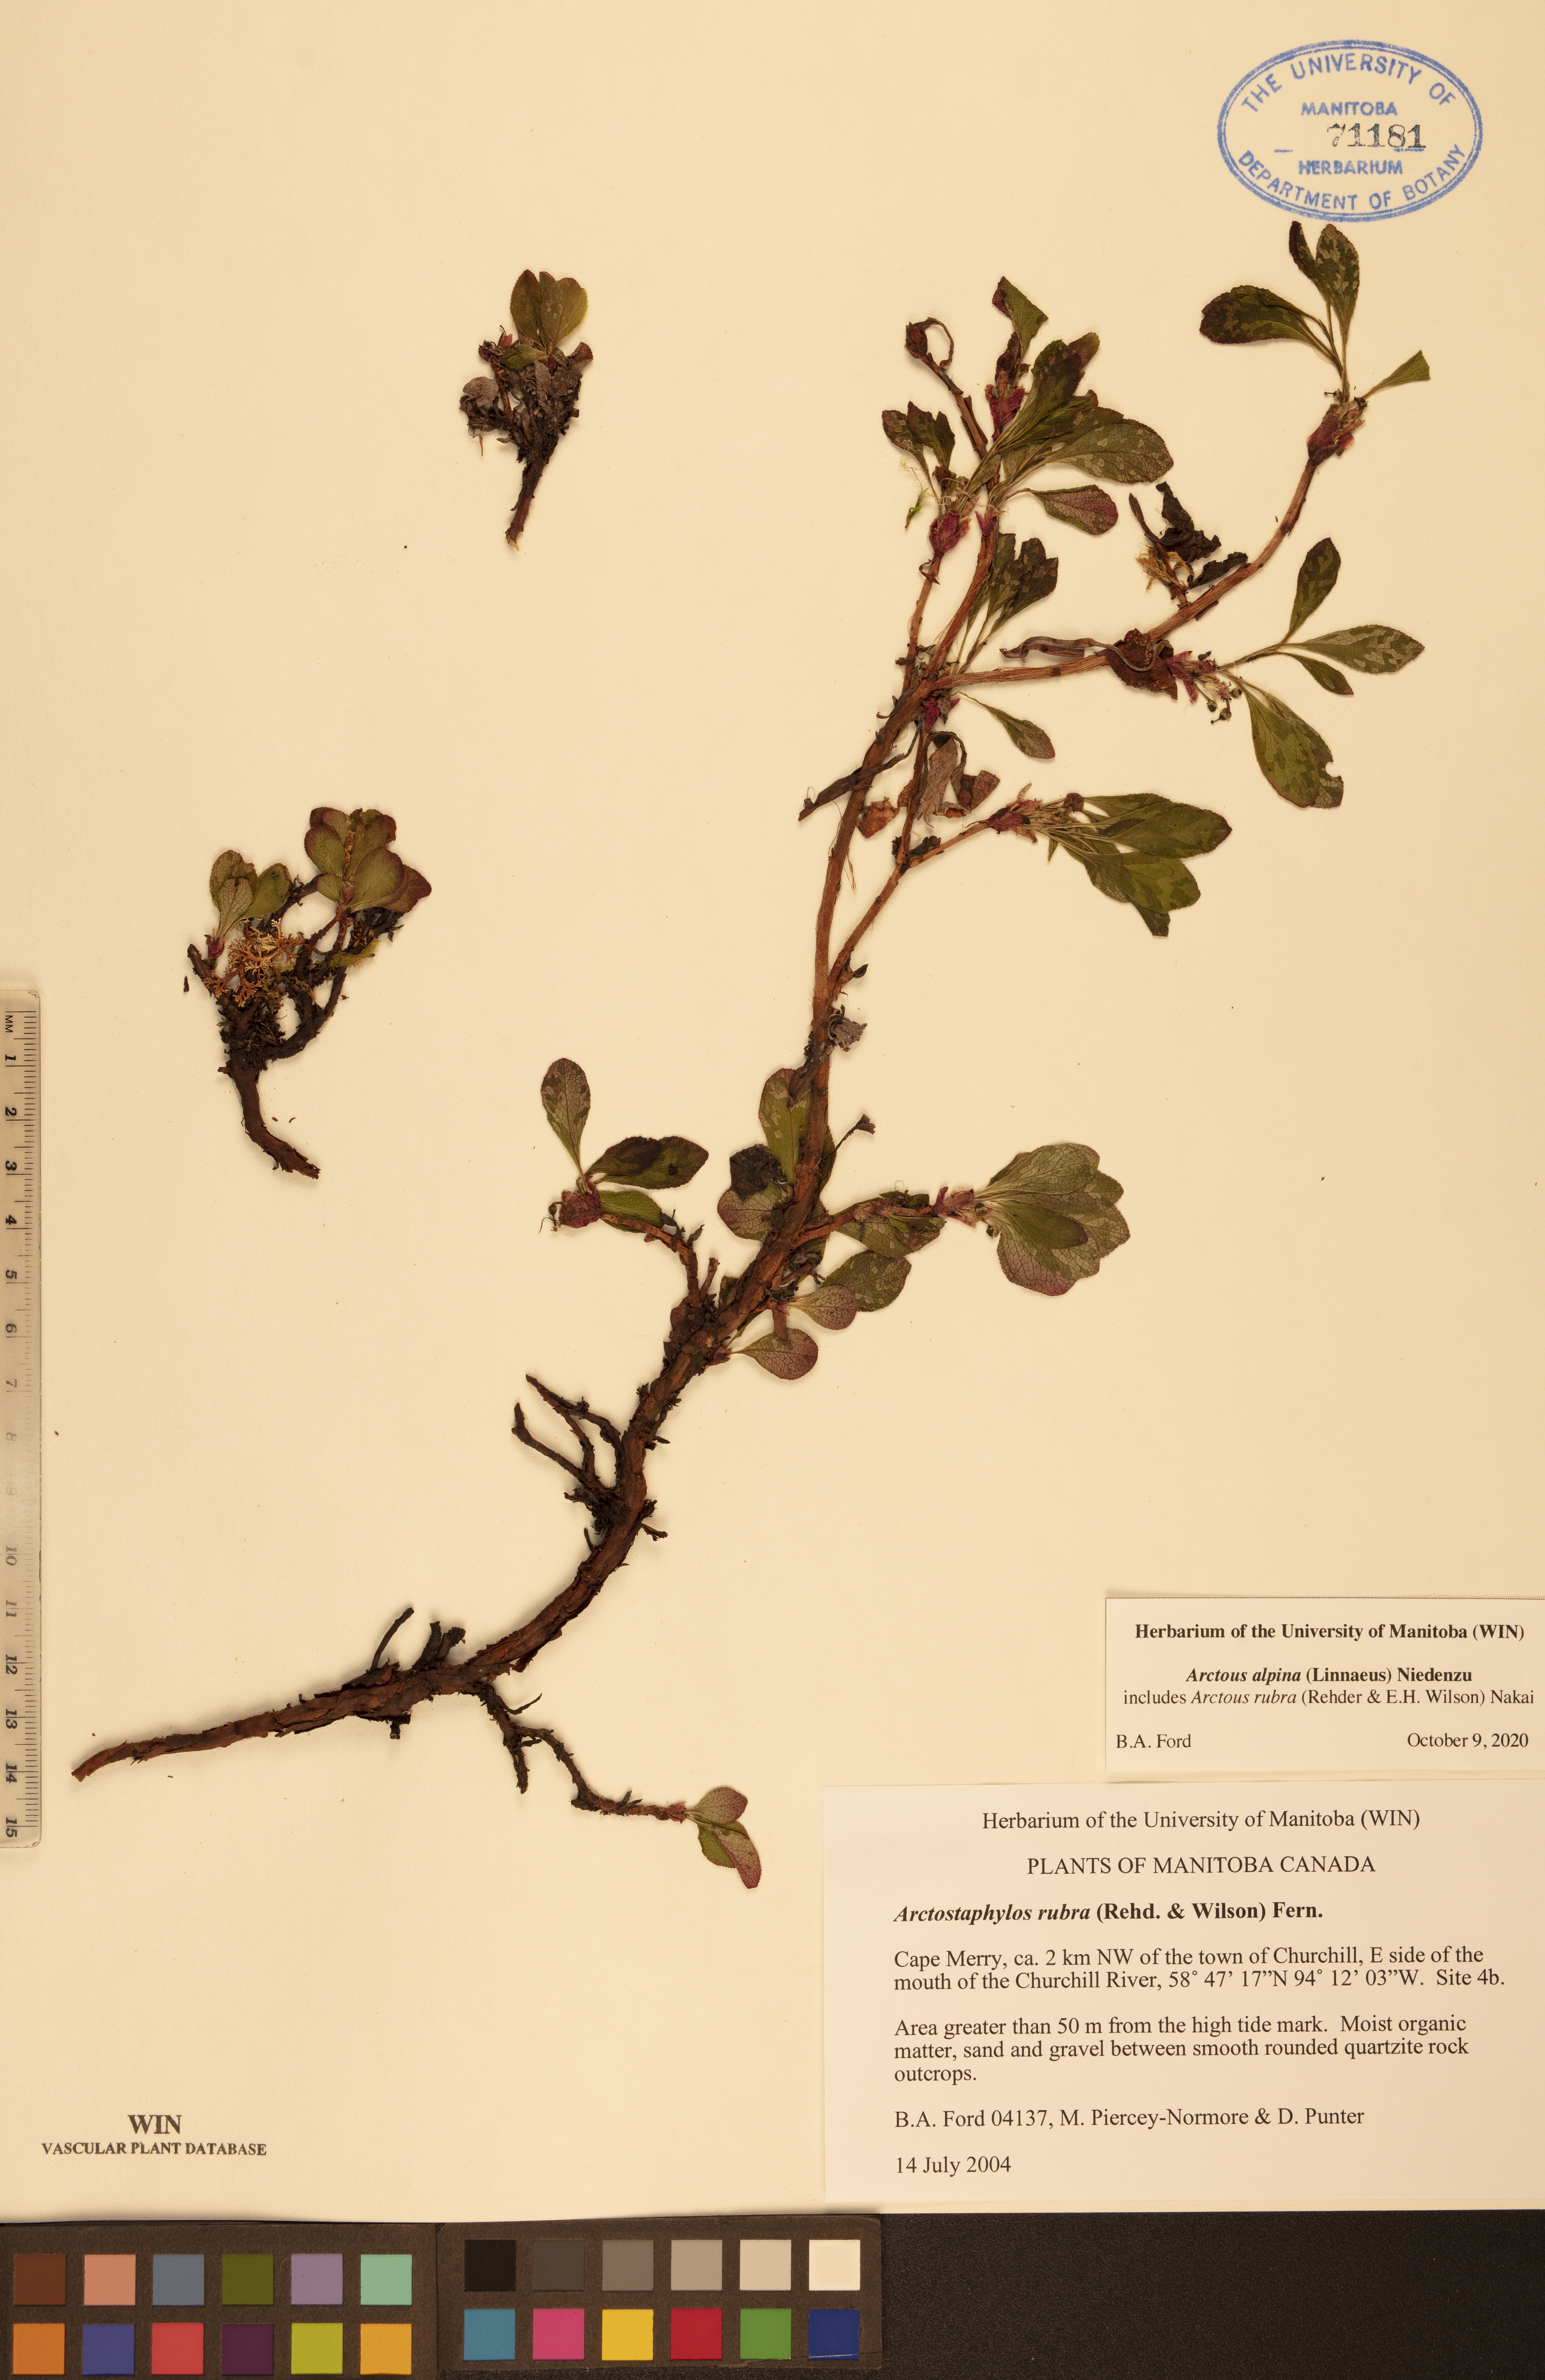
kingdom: Plantae
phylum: Tracheophyta
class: Magnoliopsida
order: Ericales
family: Ericaceae
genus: Arctostaphylos
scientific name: Arctostaphylos alpinus
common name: Alpine bearberry
